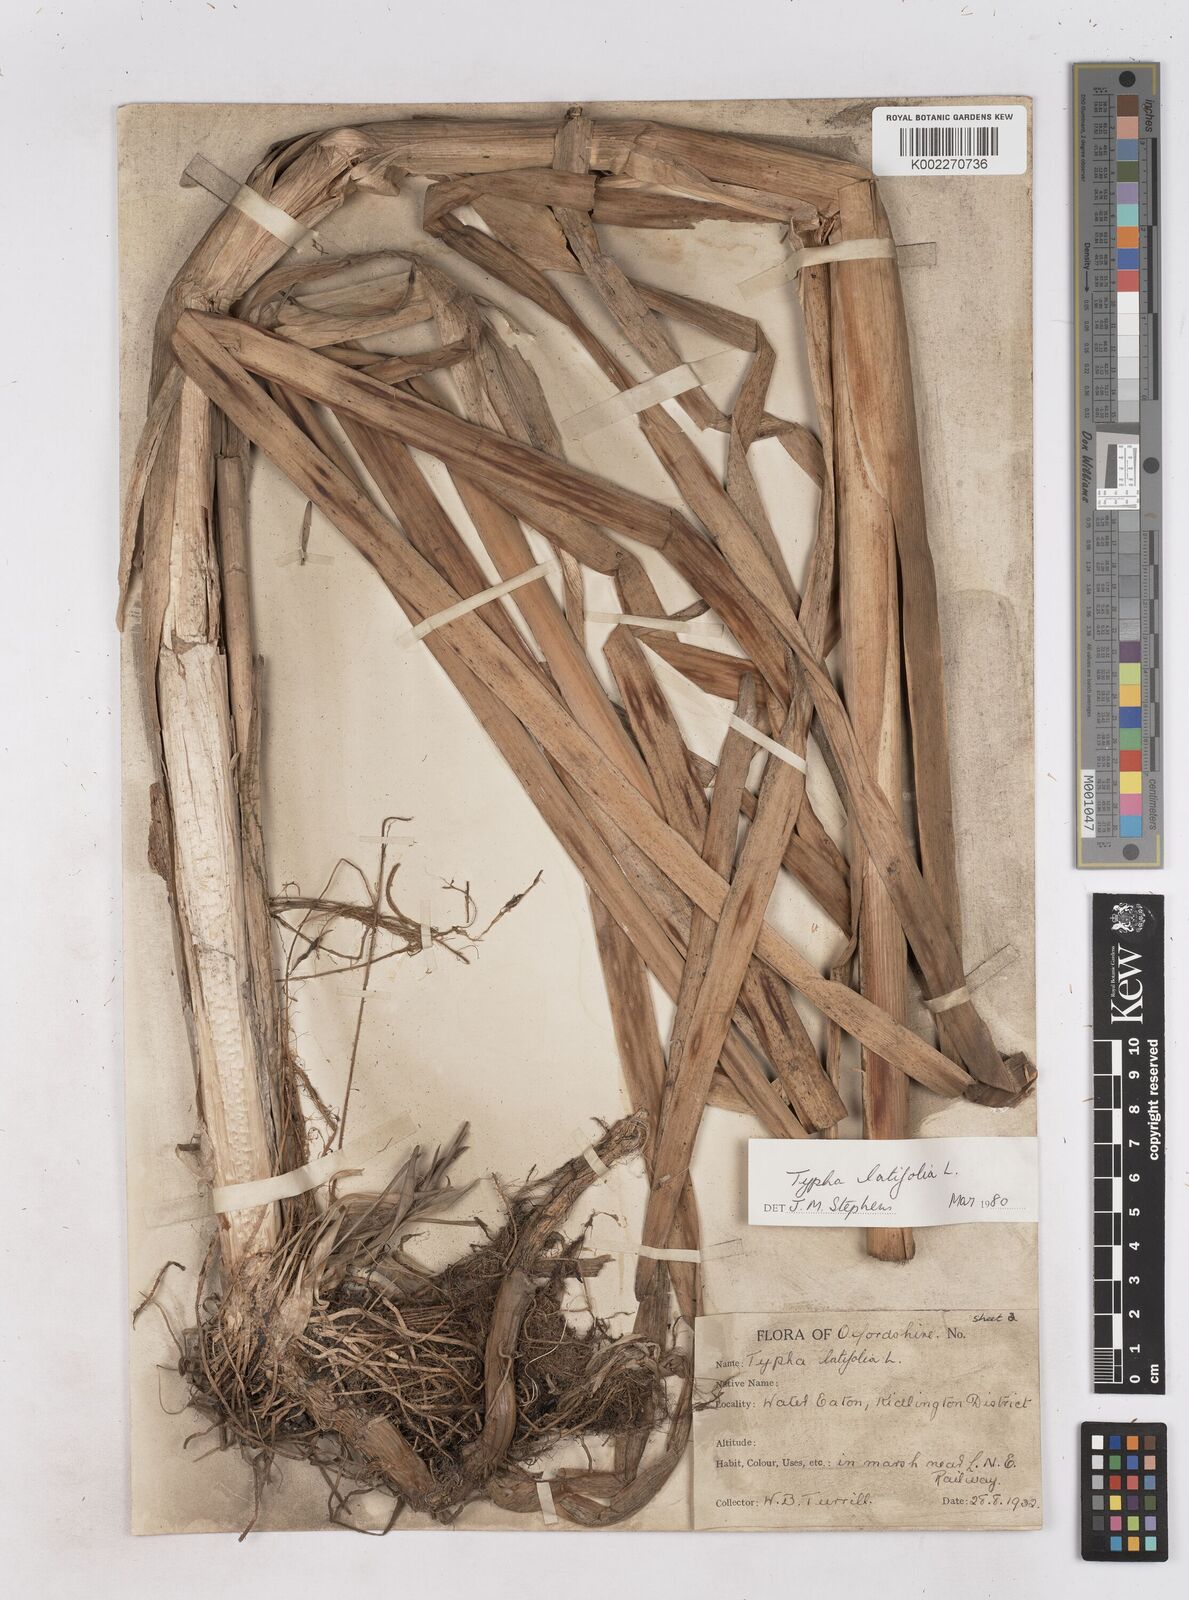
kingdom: Plantae
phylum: Tracheophyta
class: Liliopsida
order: Poales
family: Typhaceae
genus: Typha
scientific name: Typha latifolia
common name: Broadleaf cattail
